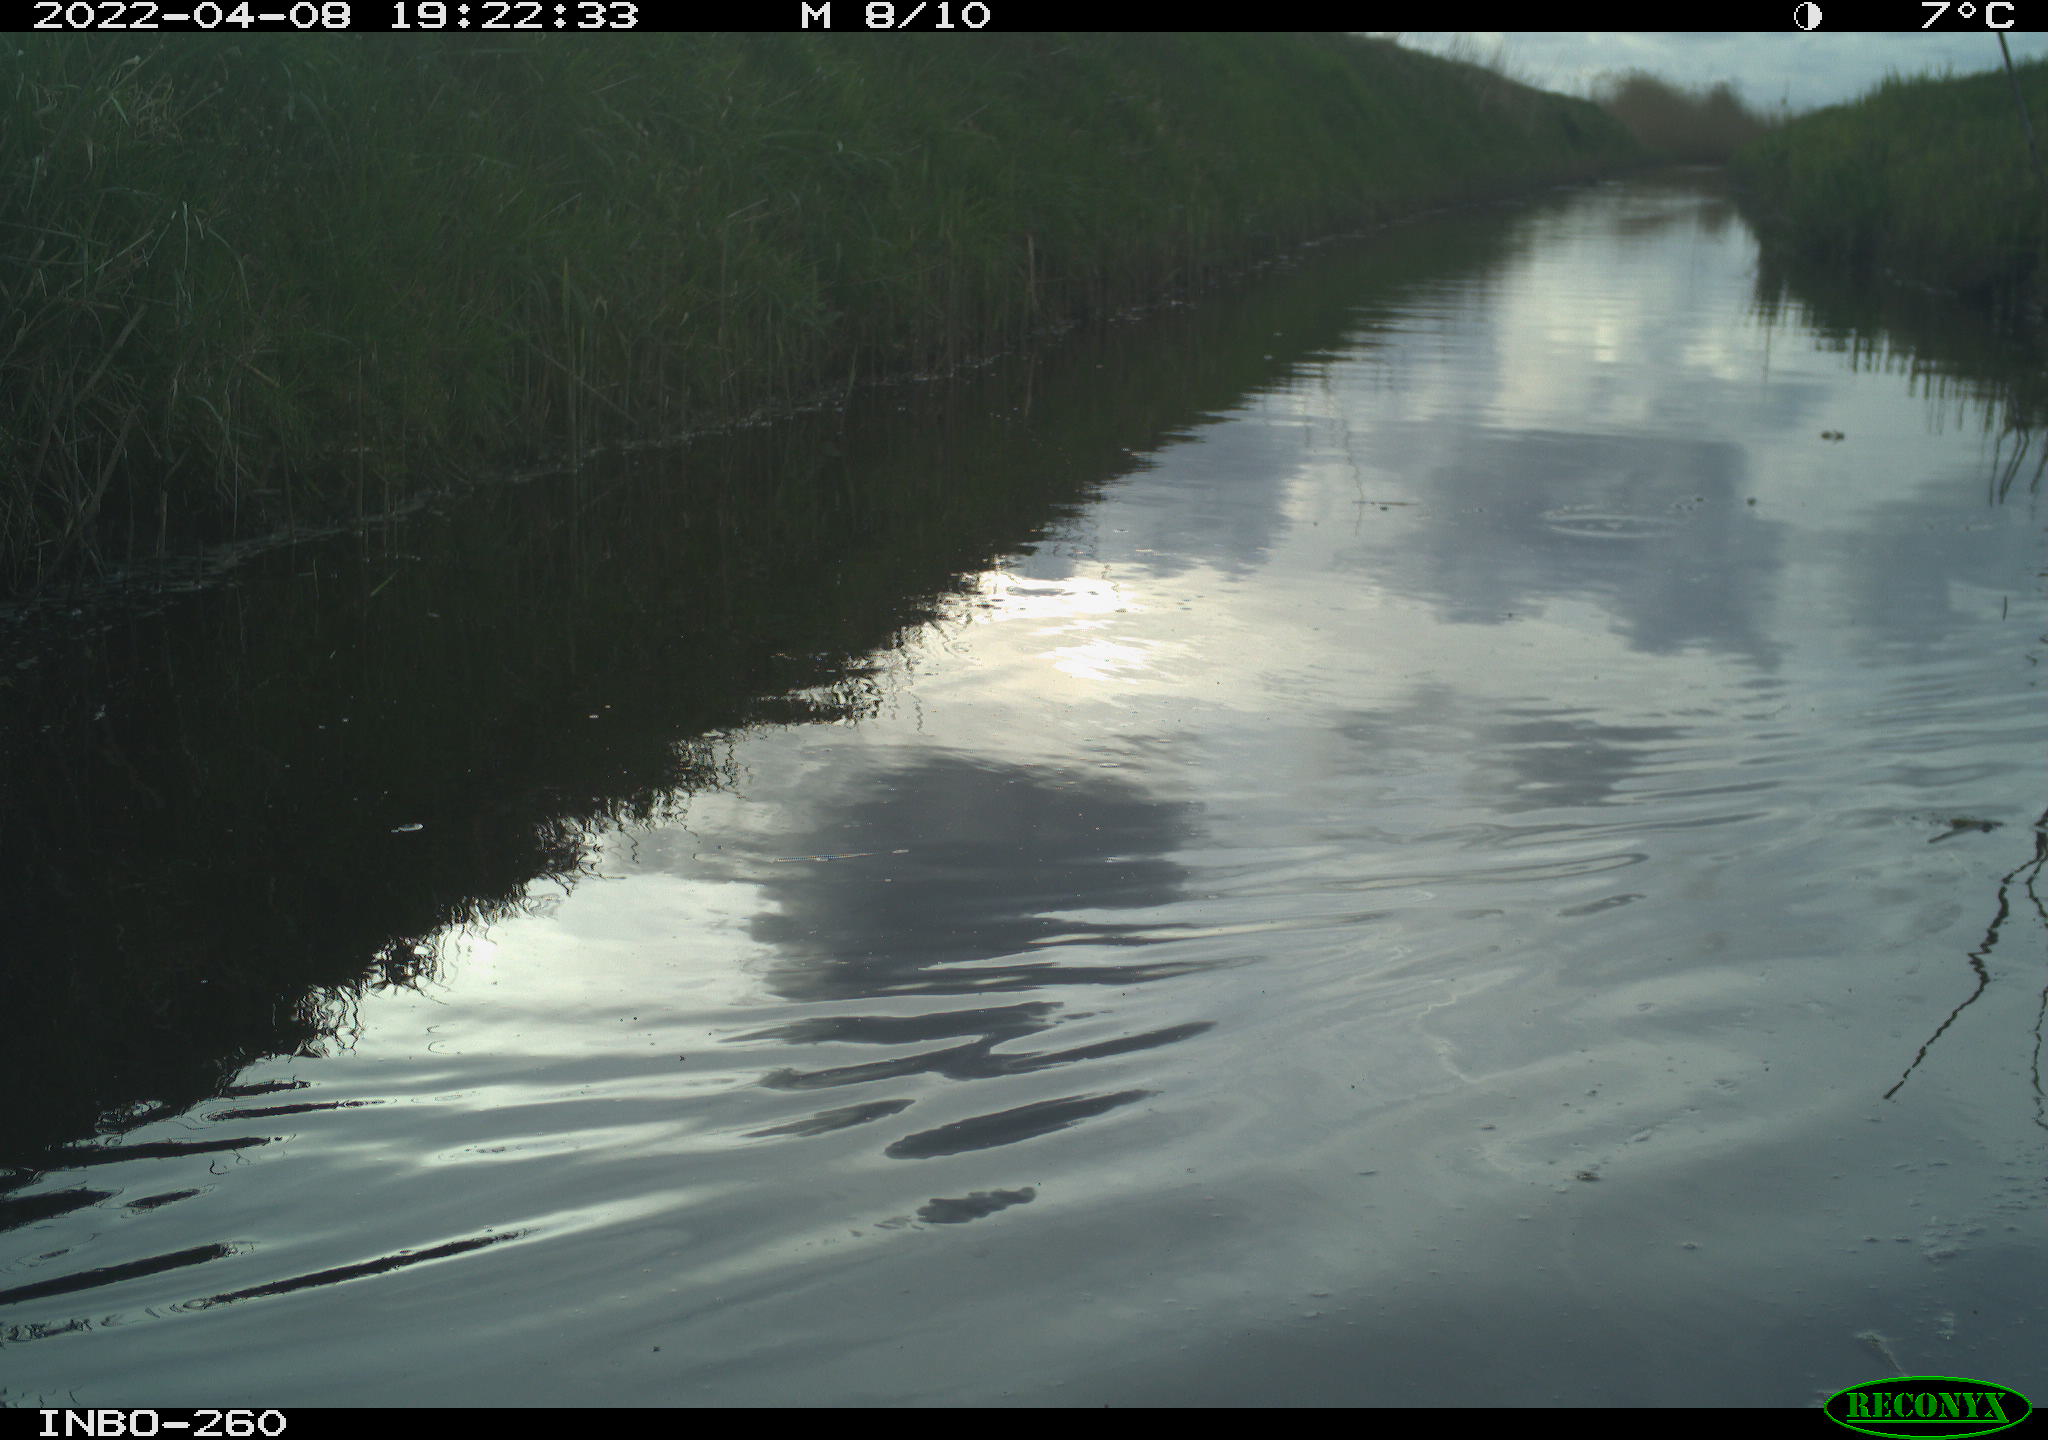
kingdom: Animalia
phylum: Chordata
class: Aves
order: Gruiformes
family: Rallidae
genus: Fulica
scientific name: Fulica atra
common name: Eurasian coot
